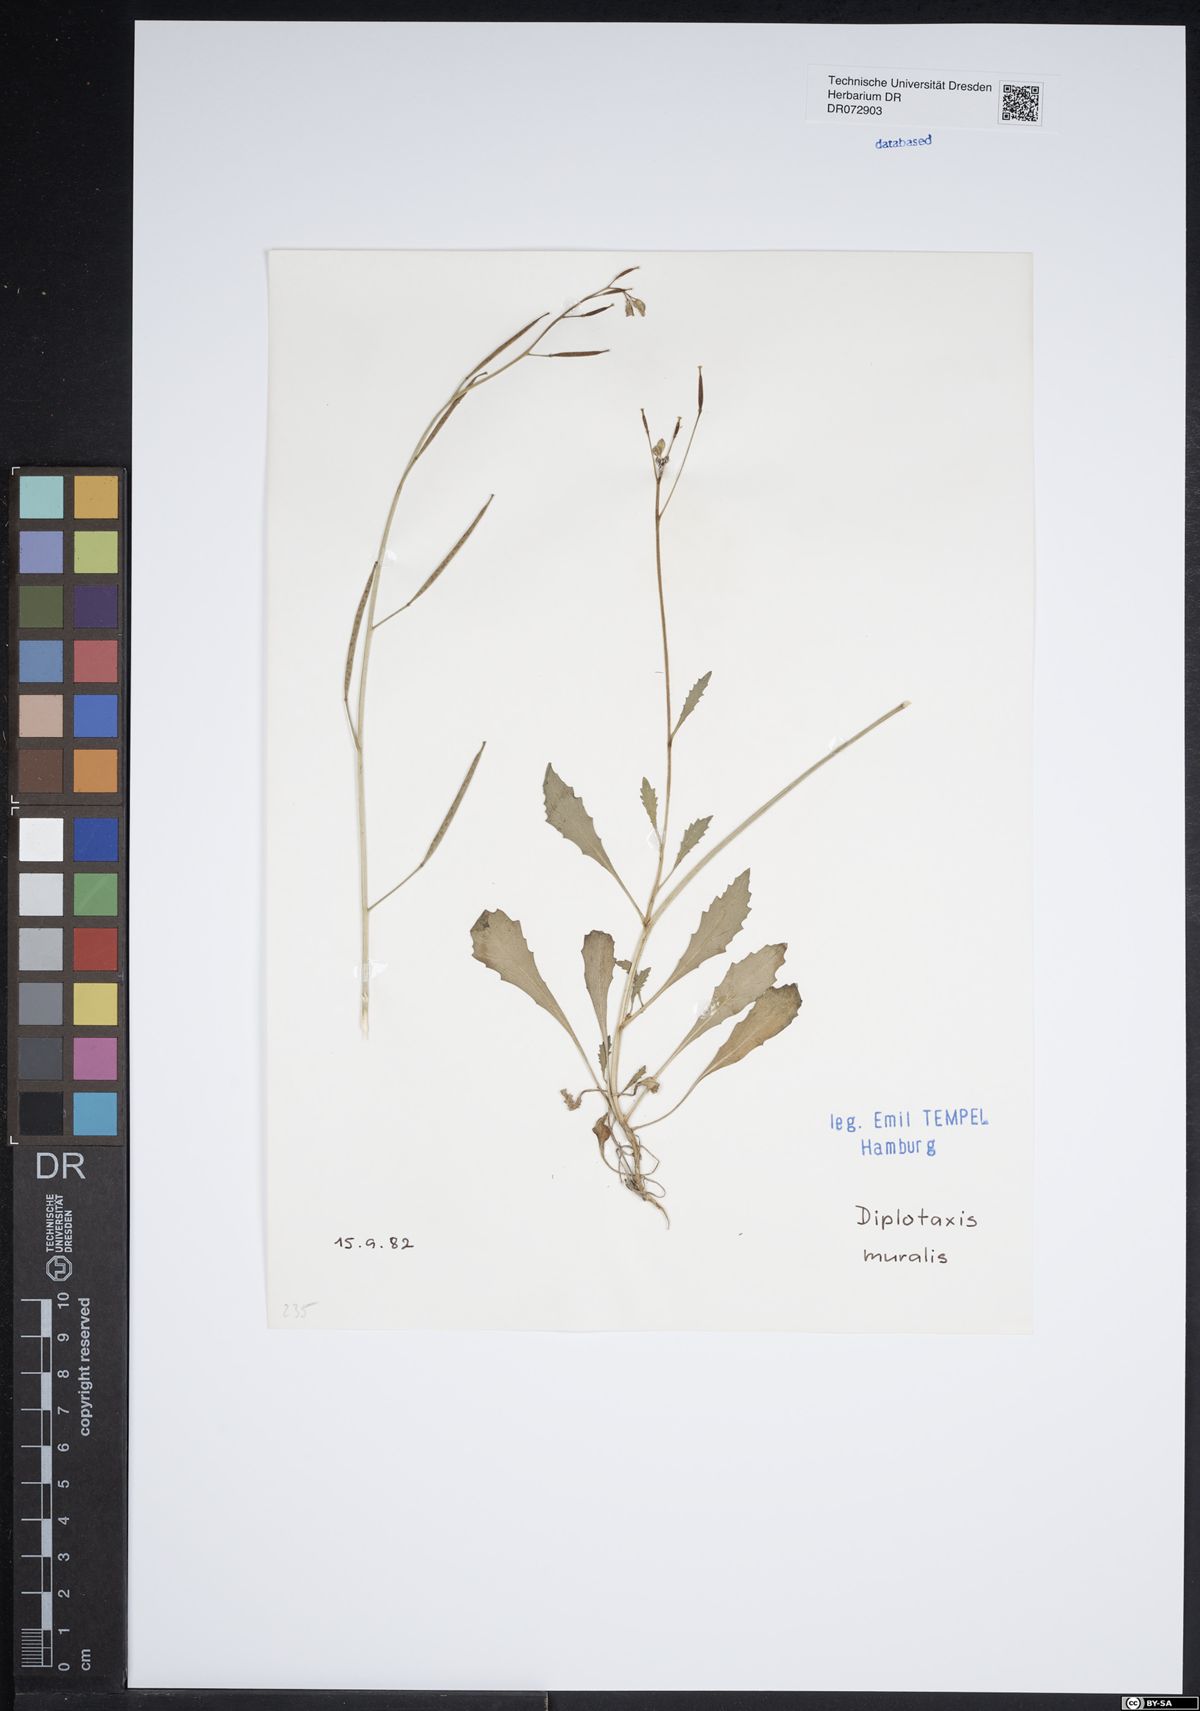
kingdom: Plantae
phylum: Tracheophyta
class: Magnoliopsida
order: Brassicales
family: Brassicaceae
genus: Diplotaxis
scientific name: Diplotaxis muralis
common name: Annual wall-rocket
